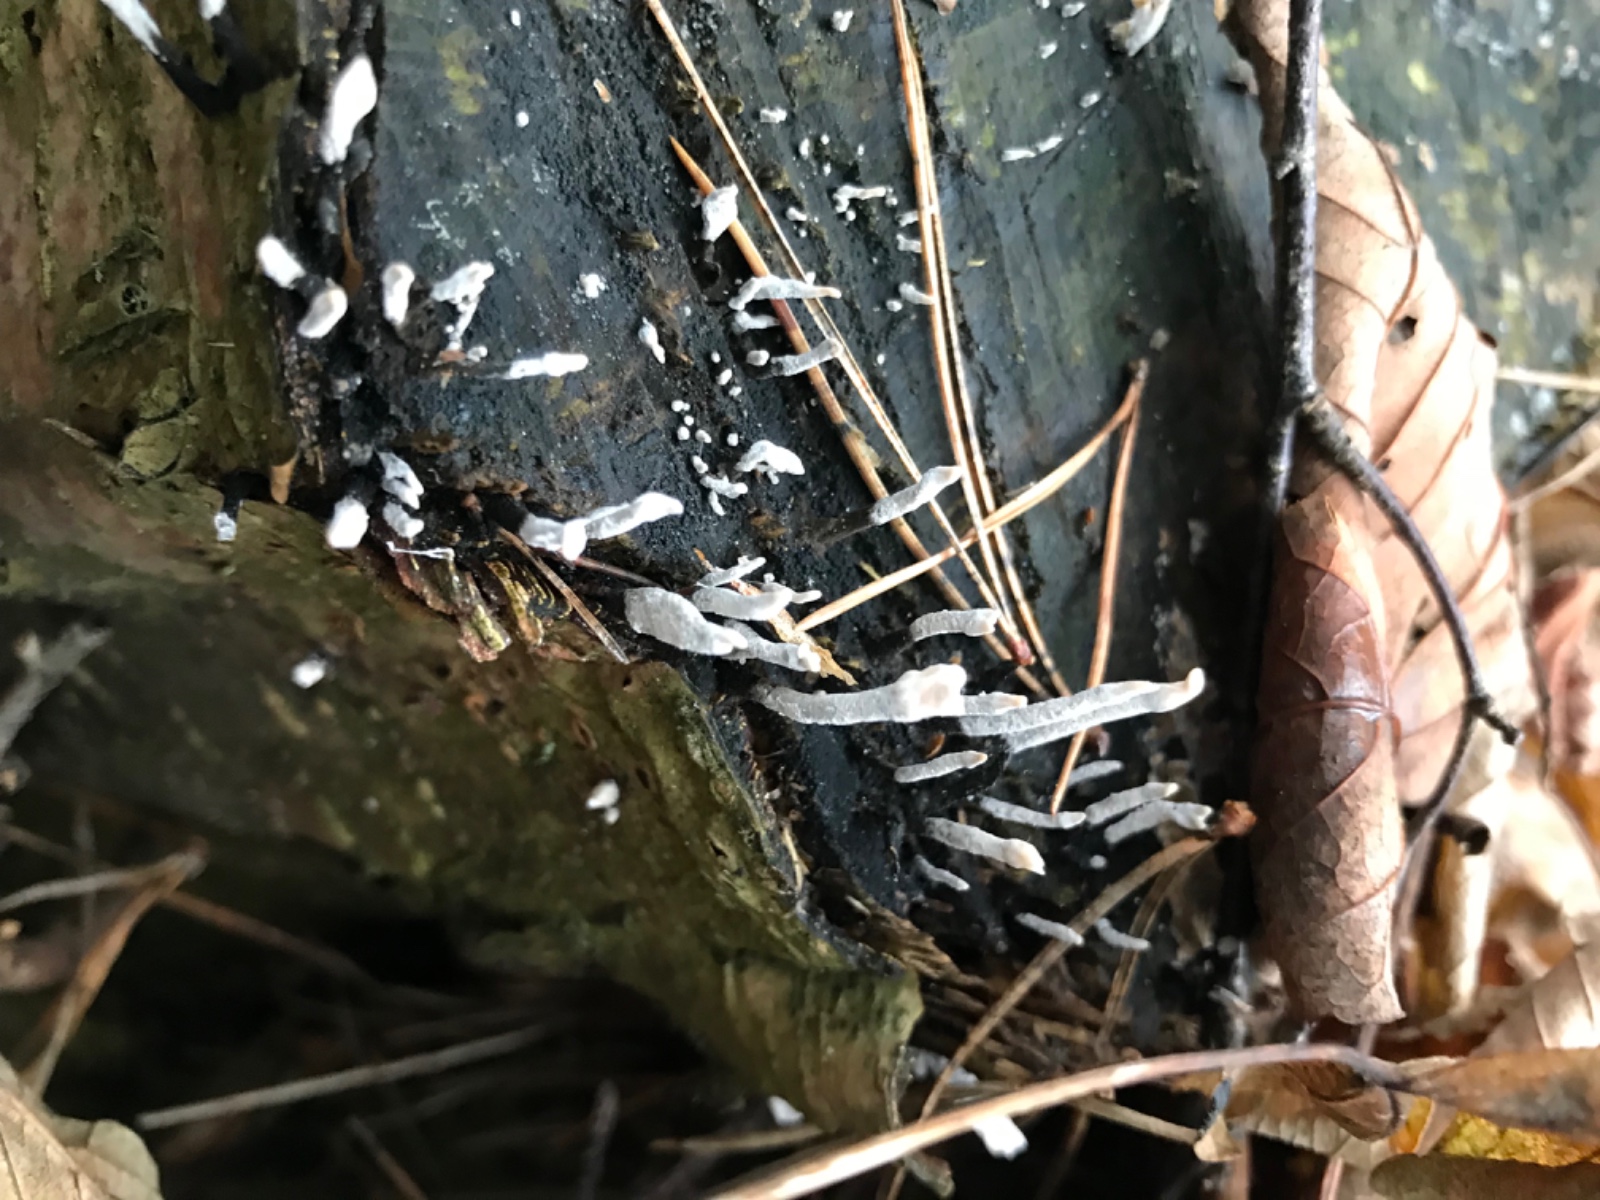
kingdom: Fungi
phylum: Ascomycota
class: Sordariomycetes
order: Xylariales
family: Xylariaceae
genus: Xylaria
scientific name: Xylaria hypoxylon
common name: grenet stødsvamp
